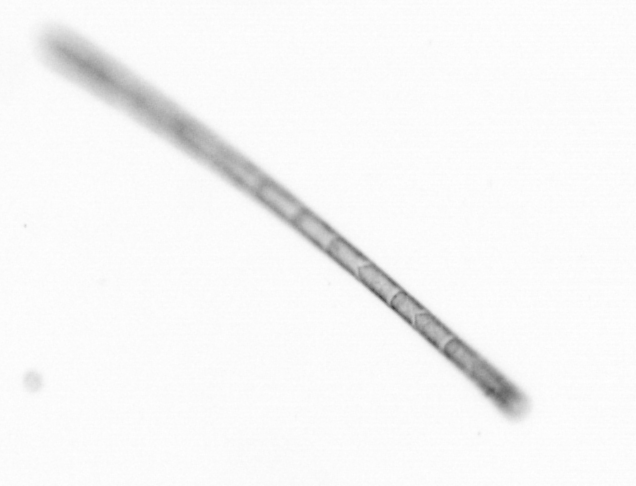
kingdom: Chromista
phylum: Ochrophyta
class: Bacillariophyceae
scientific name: Bacillariophyceae
